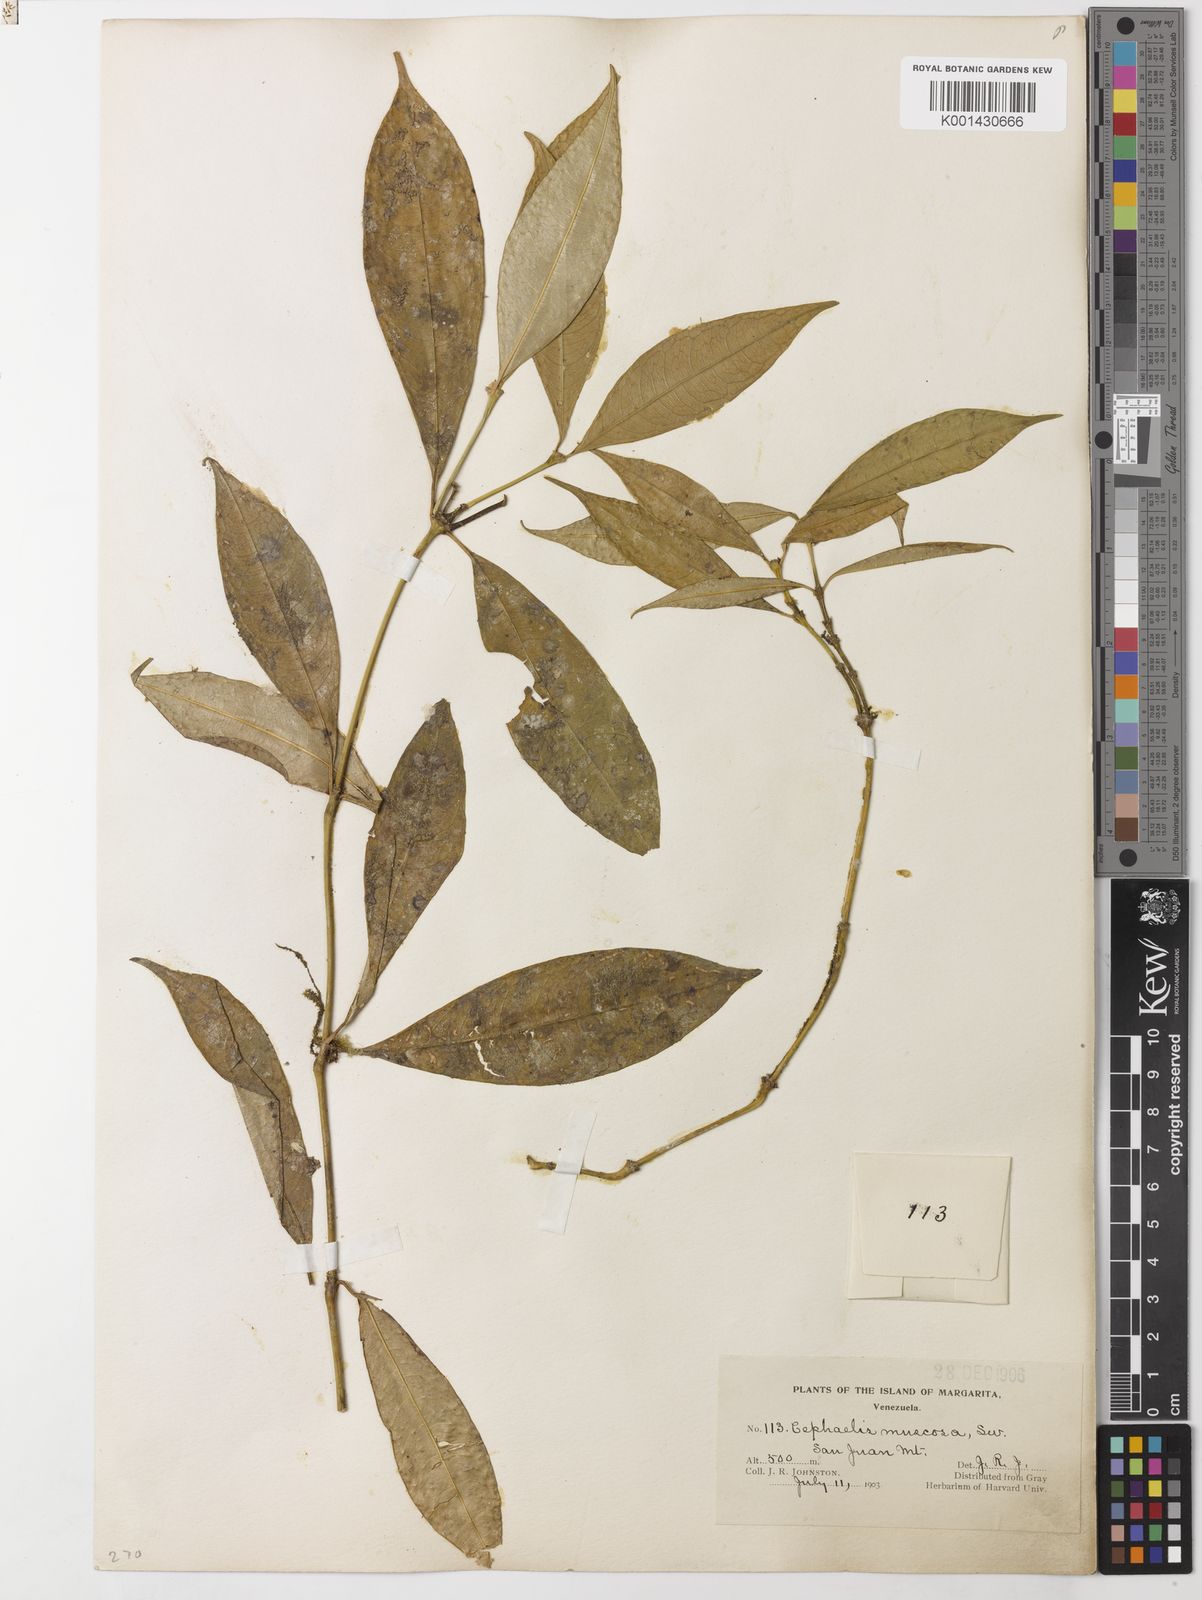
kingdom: Plantae
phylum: Tracheophyta
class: Magnoliopsida
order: Gentianales
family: Rubiaceae
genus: Palicourea
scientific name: Palicourea muscosa
